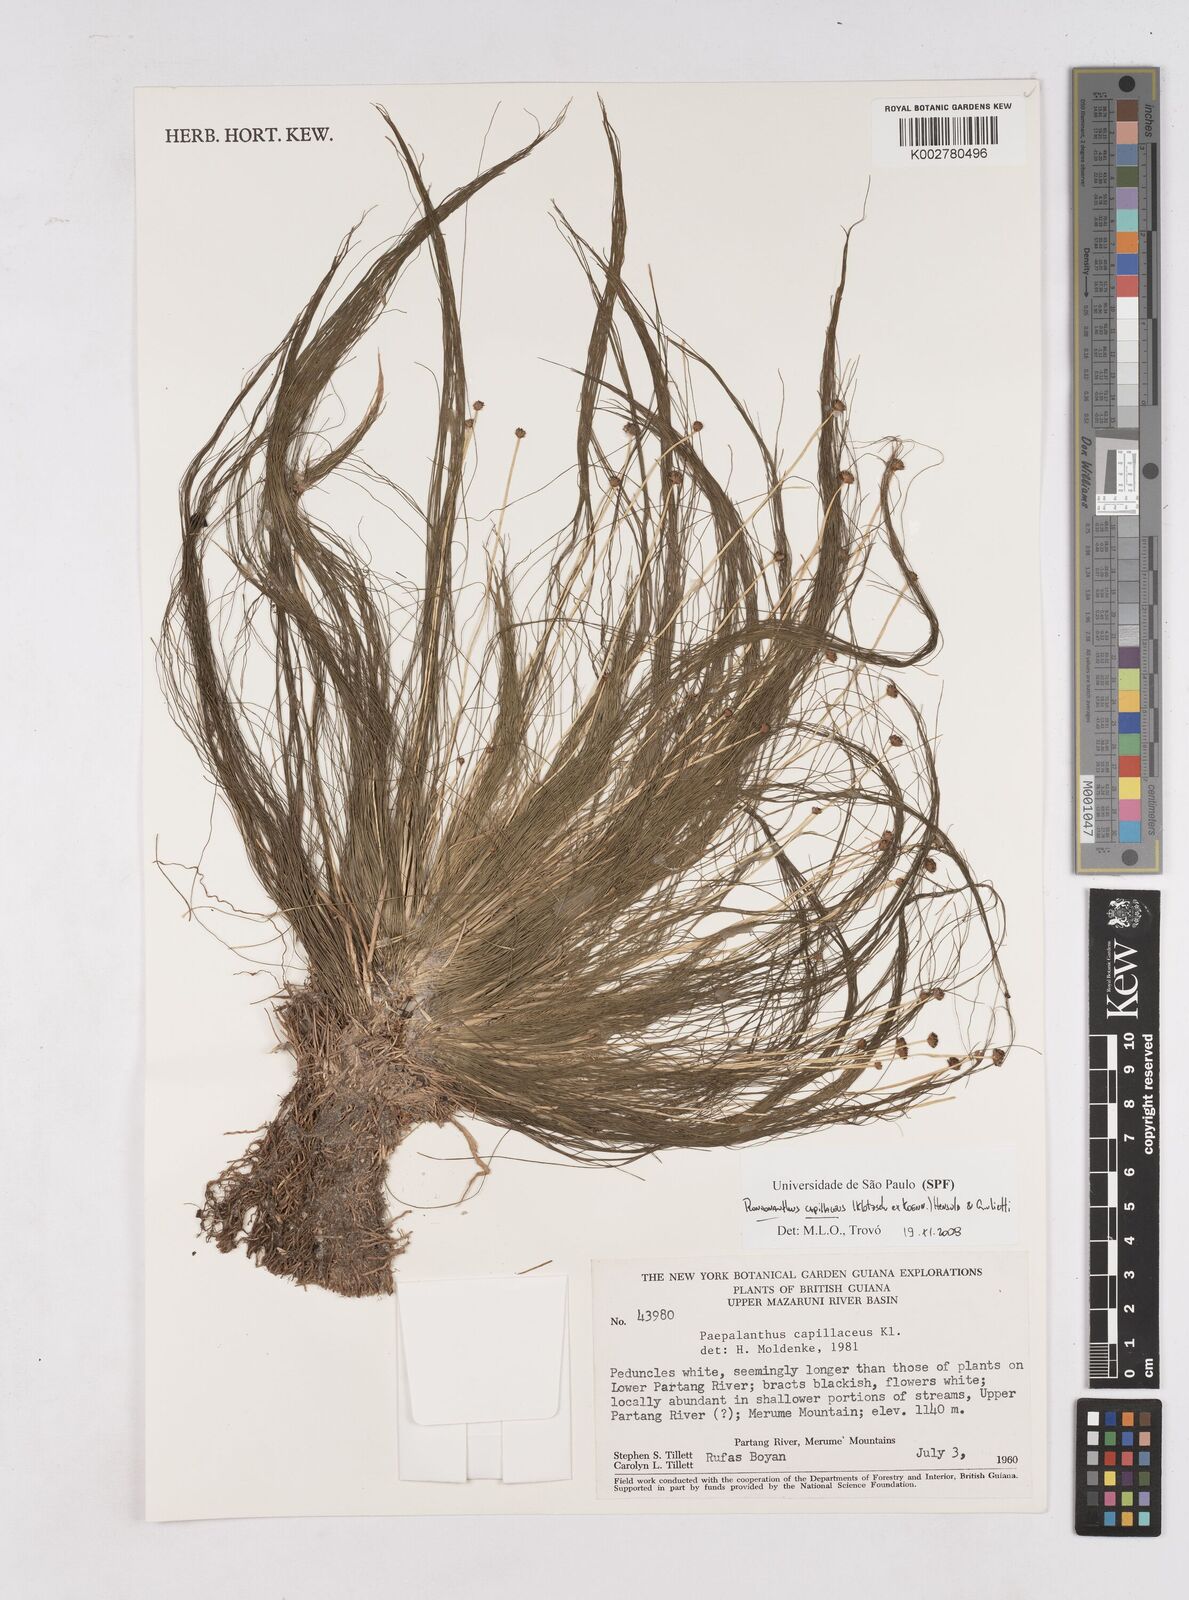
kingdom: Plantae
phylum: Tracheophyta
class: Liliopsida
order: Poales
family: Eriocaulaceae
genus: Rondonanthus
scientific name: Rondonanthus capillaceus
